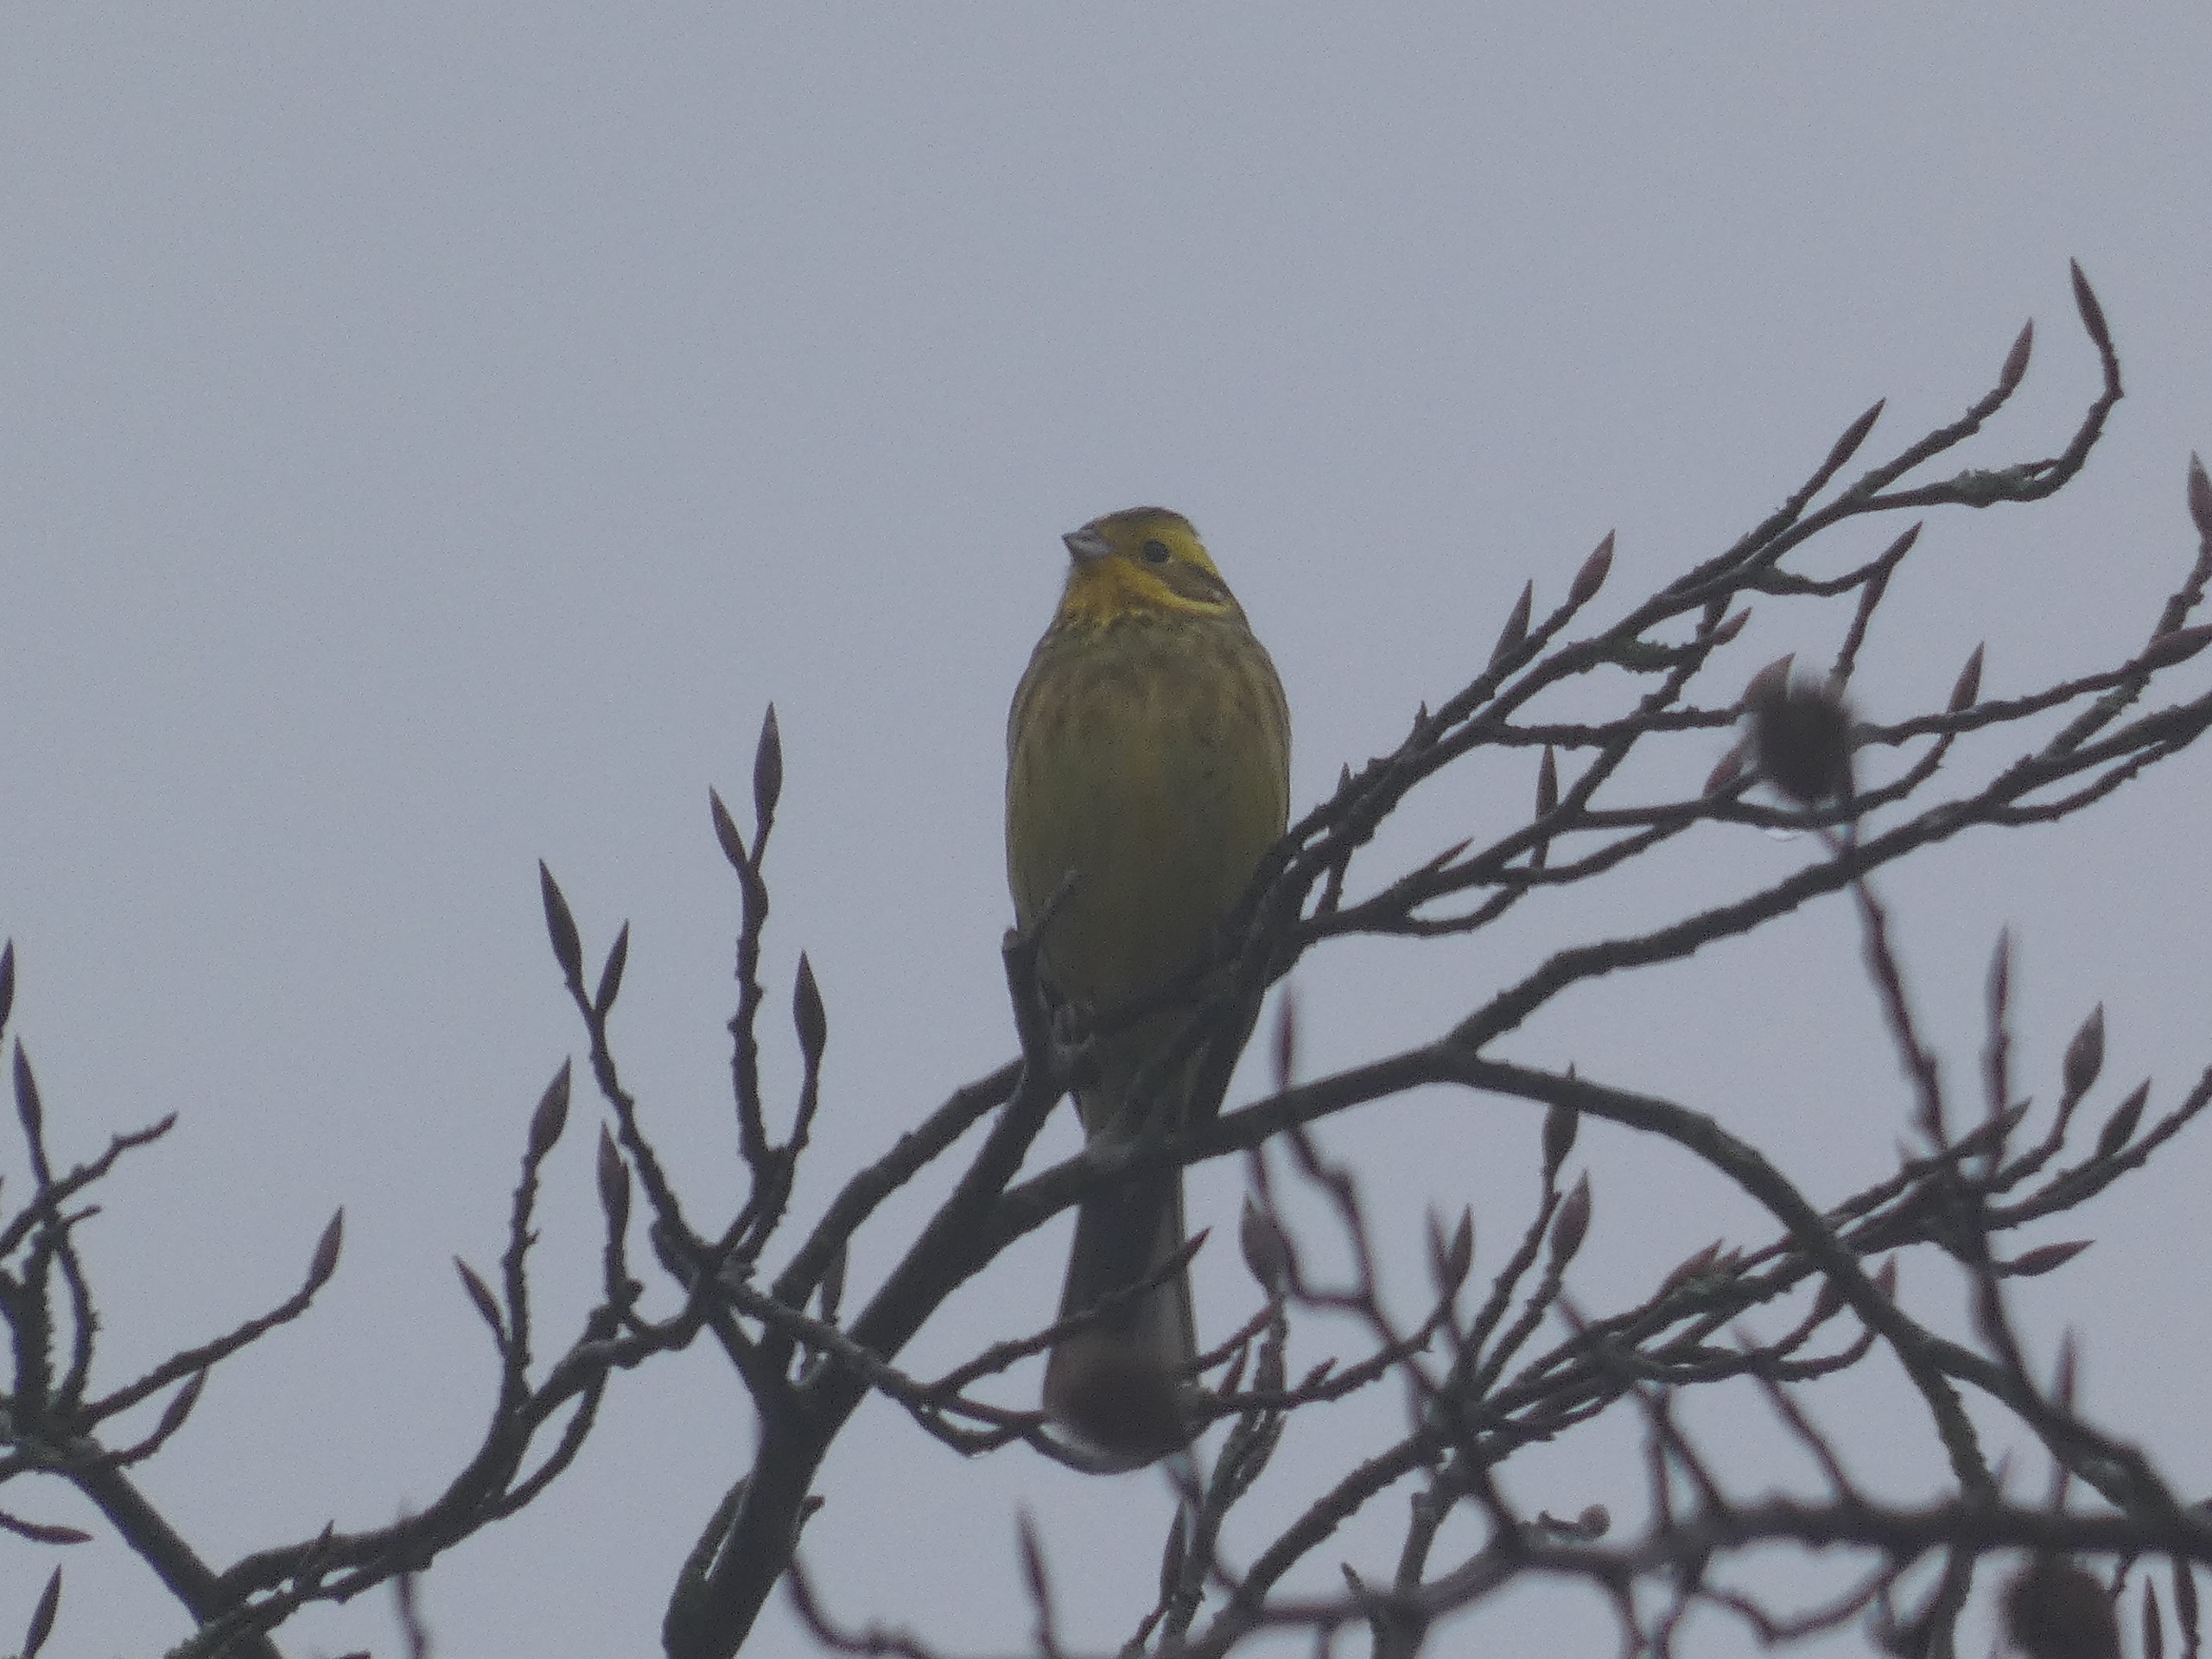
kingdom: Animalia
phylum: Chordata
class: Aves
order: Passeriformes
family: Emberizidae
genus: Emberiza
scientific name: Emberiza citrinella
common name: Gulspurv
